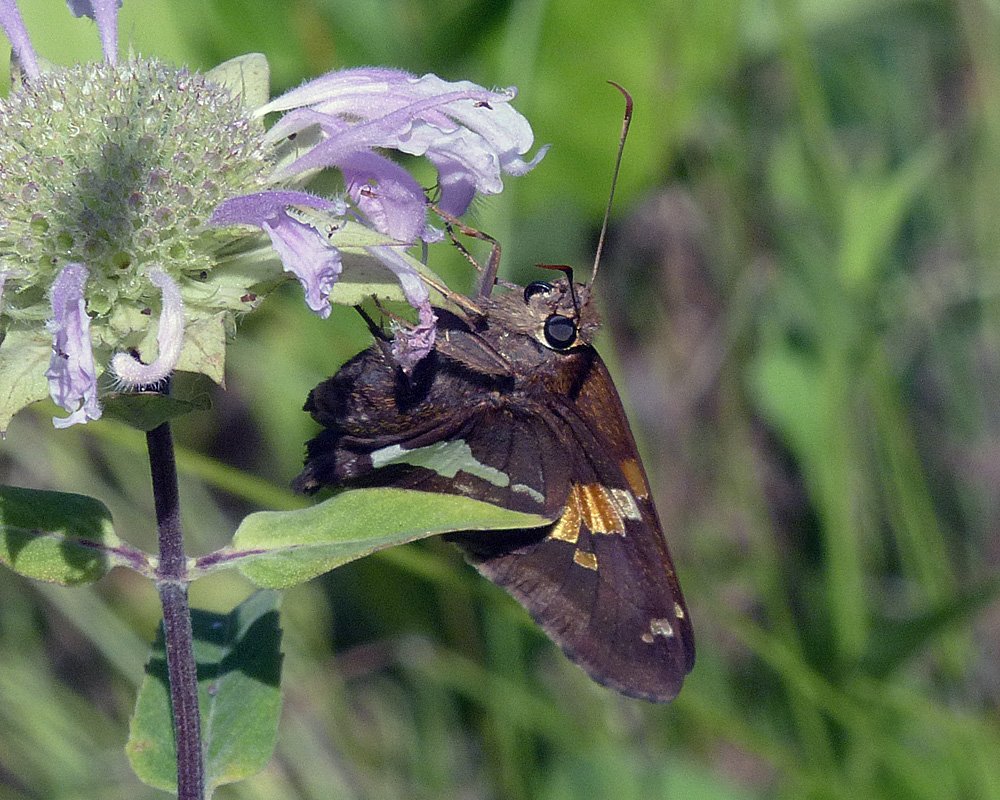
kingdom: Animalia
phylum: Arthropoda
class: Insecta
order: Lepidoptera
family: Hesperiidae
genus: Epargyreus
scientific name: Epargyreus clarus
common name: Silver-spotted Skipper
